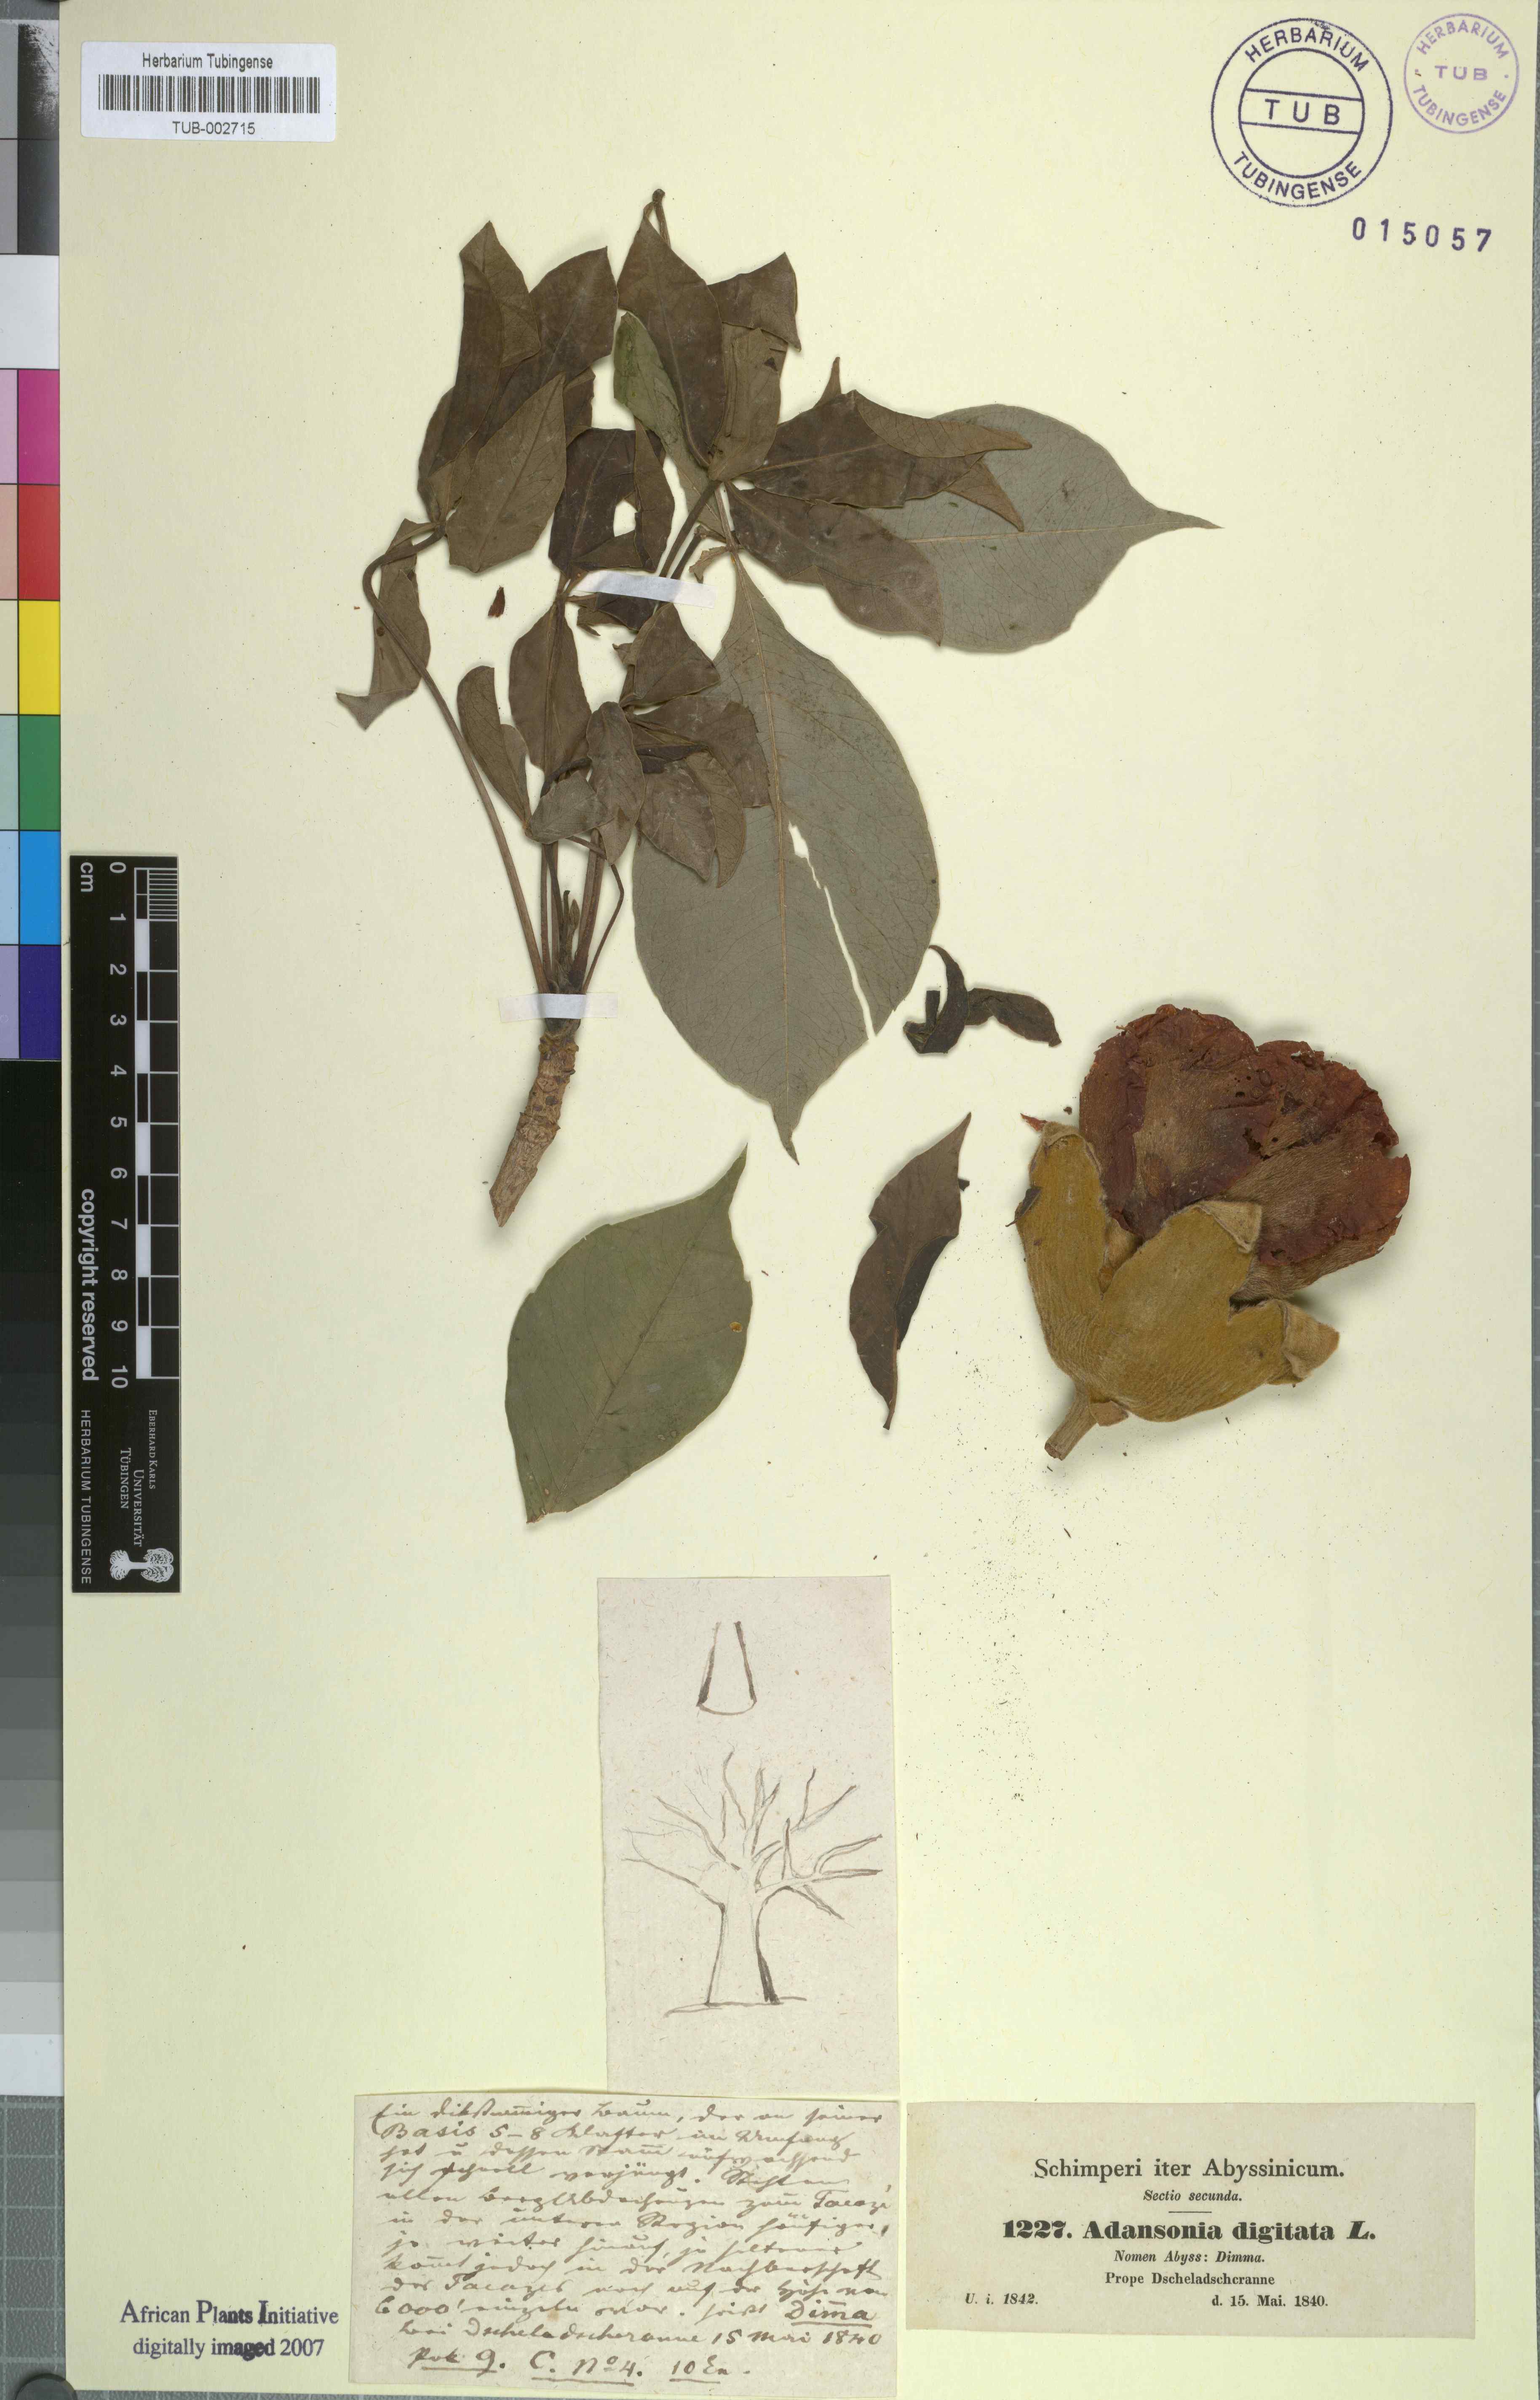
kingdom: Plantae
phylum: Tracheophyta
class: Magnoliopsida
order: Malvales
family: Malvaceae
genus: Adansonia
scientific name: Adansonia digitata
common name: Dead-rat-tree
